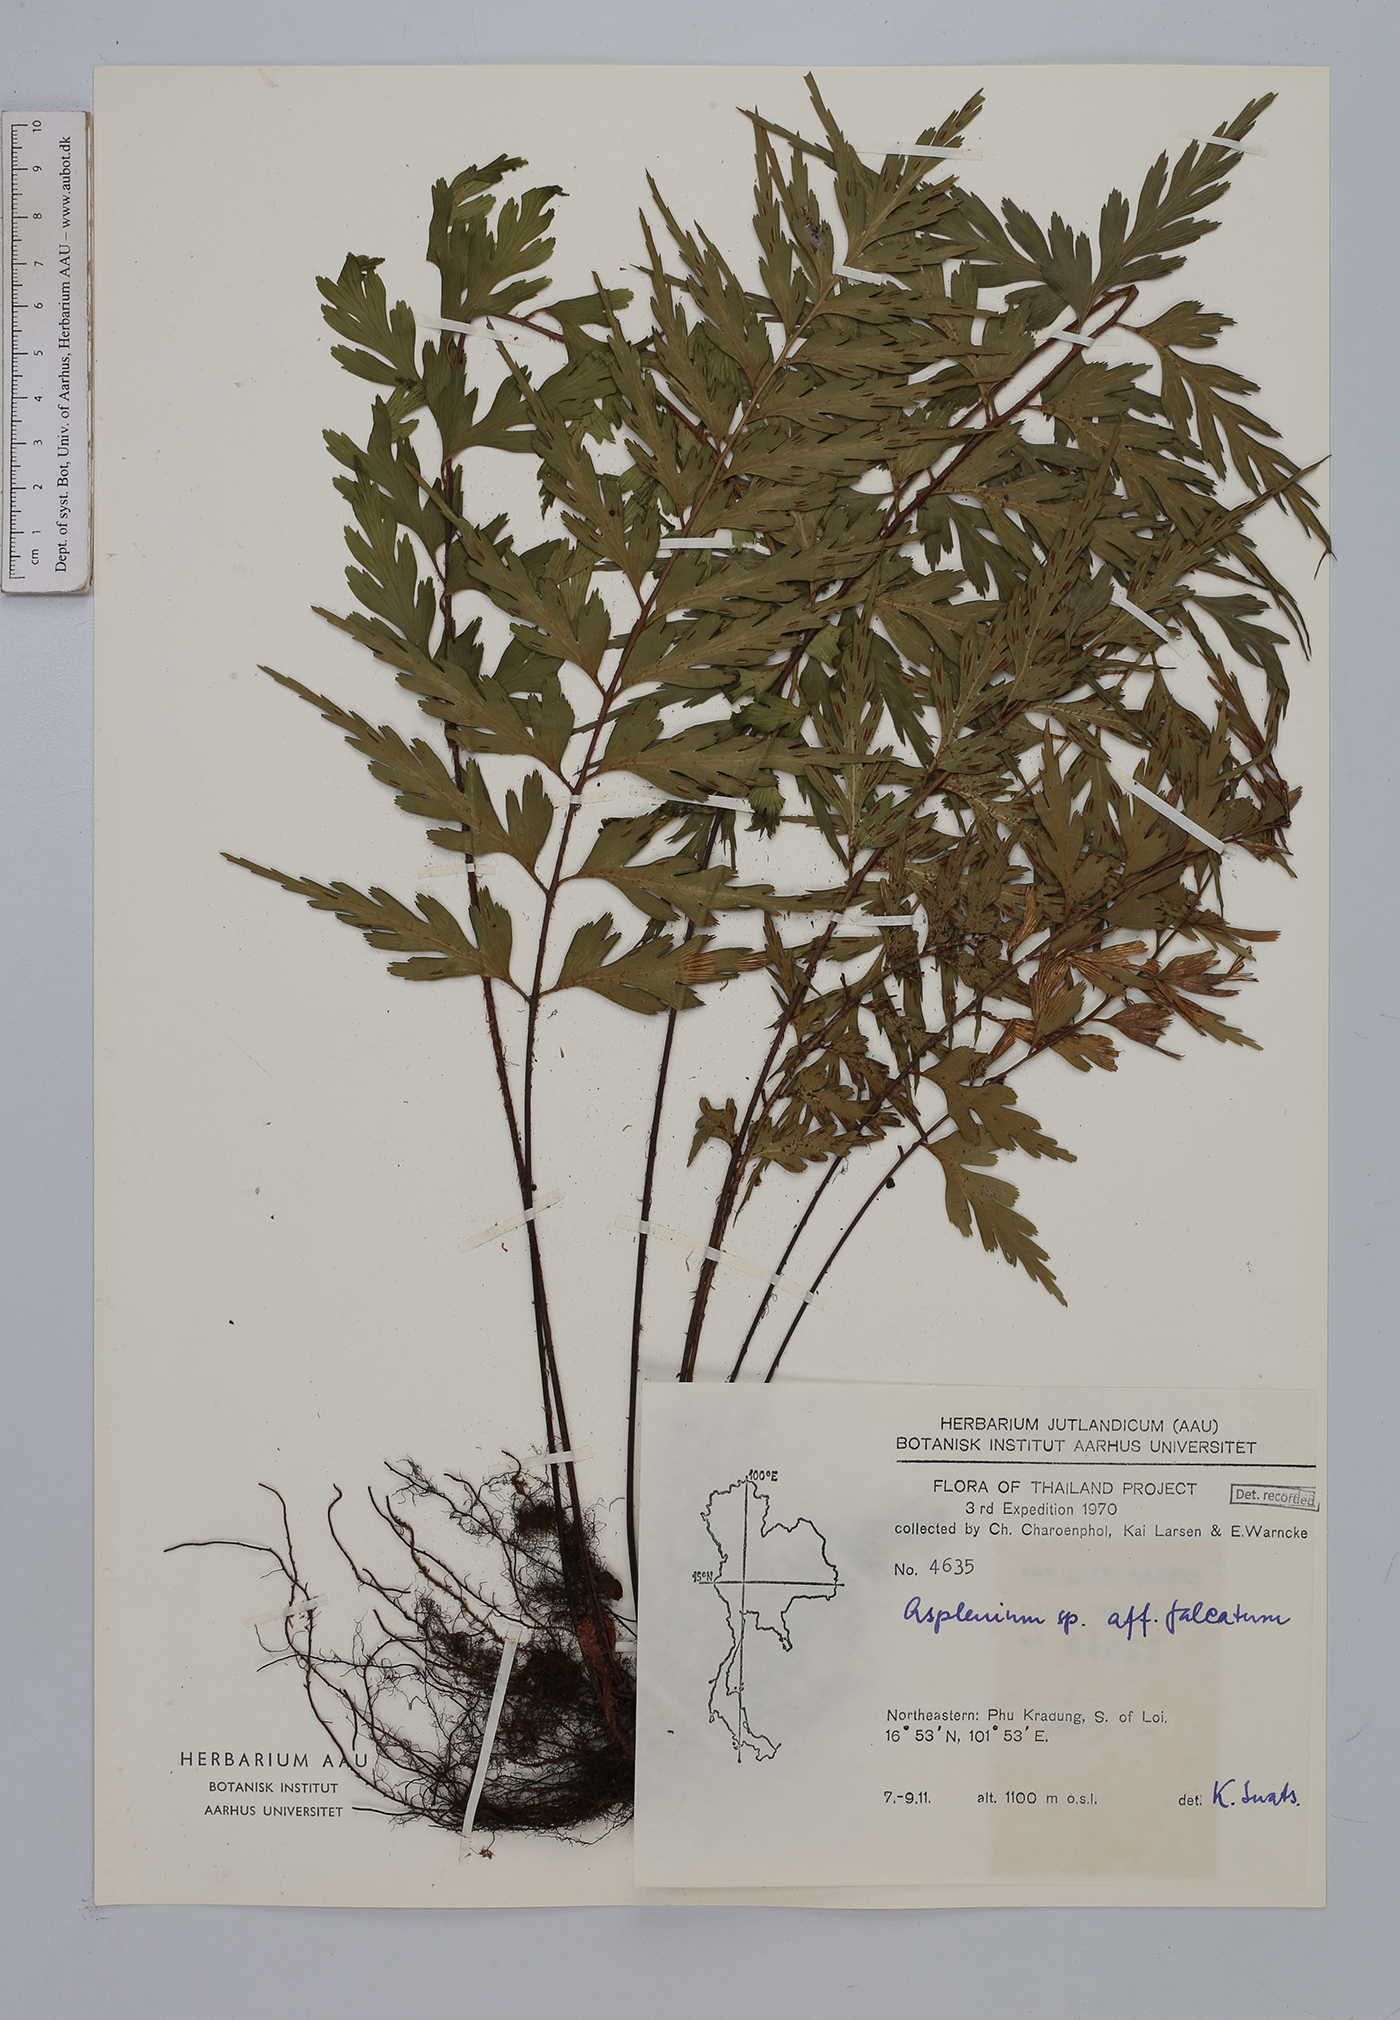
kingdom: Plantae
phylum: Tracheophyta
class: Polypodiopsida
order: Polypodiales
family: Aspleniaceae
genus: Asplenium
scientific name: Asplenium falcatum
